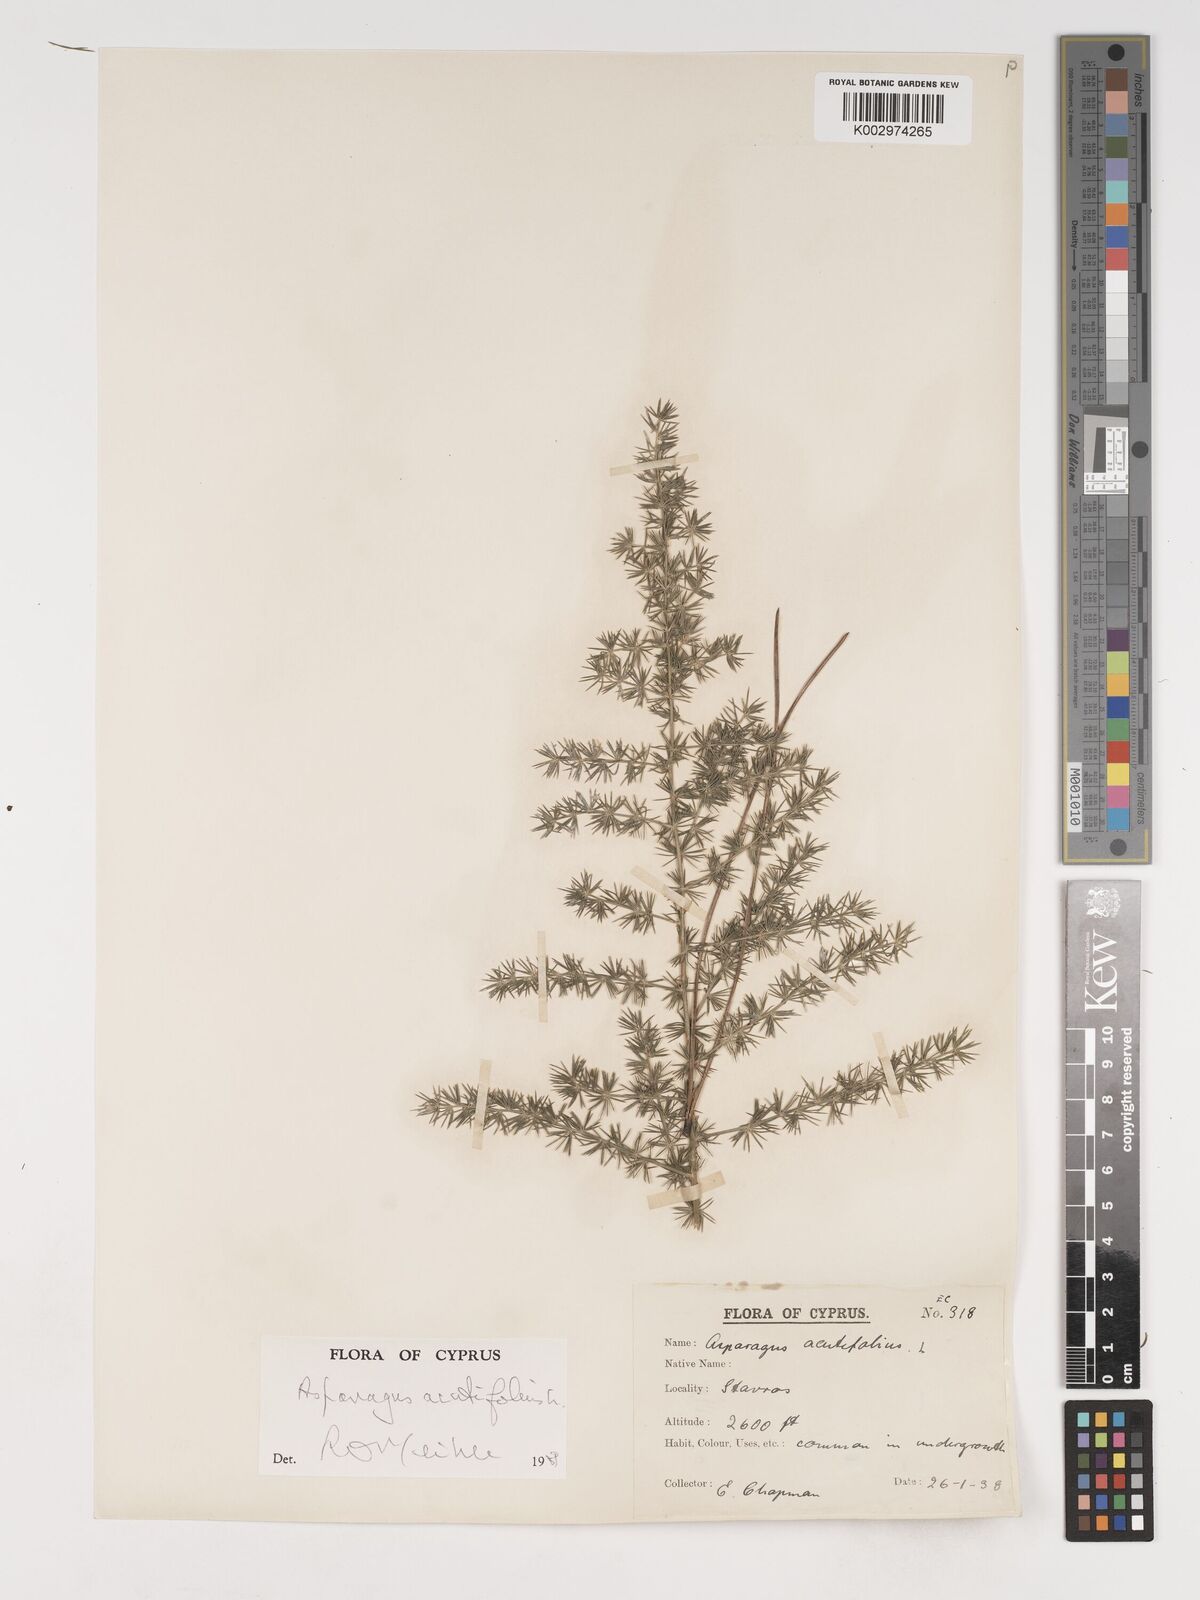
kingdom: Plantae
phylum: Tracheophyta
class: Liliopsida
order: Asparagales
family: Asparagaceae
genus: Asparagus
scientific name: Asparagus acutifolius
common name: Wild asparagus
